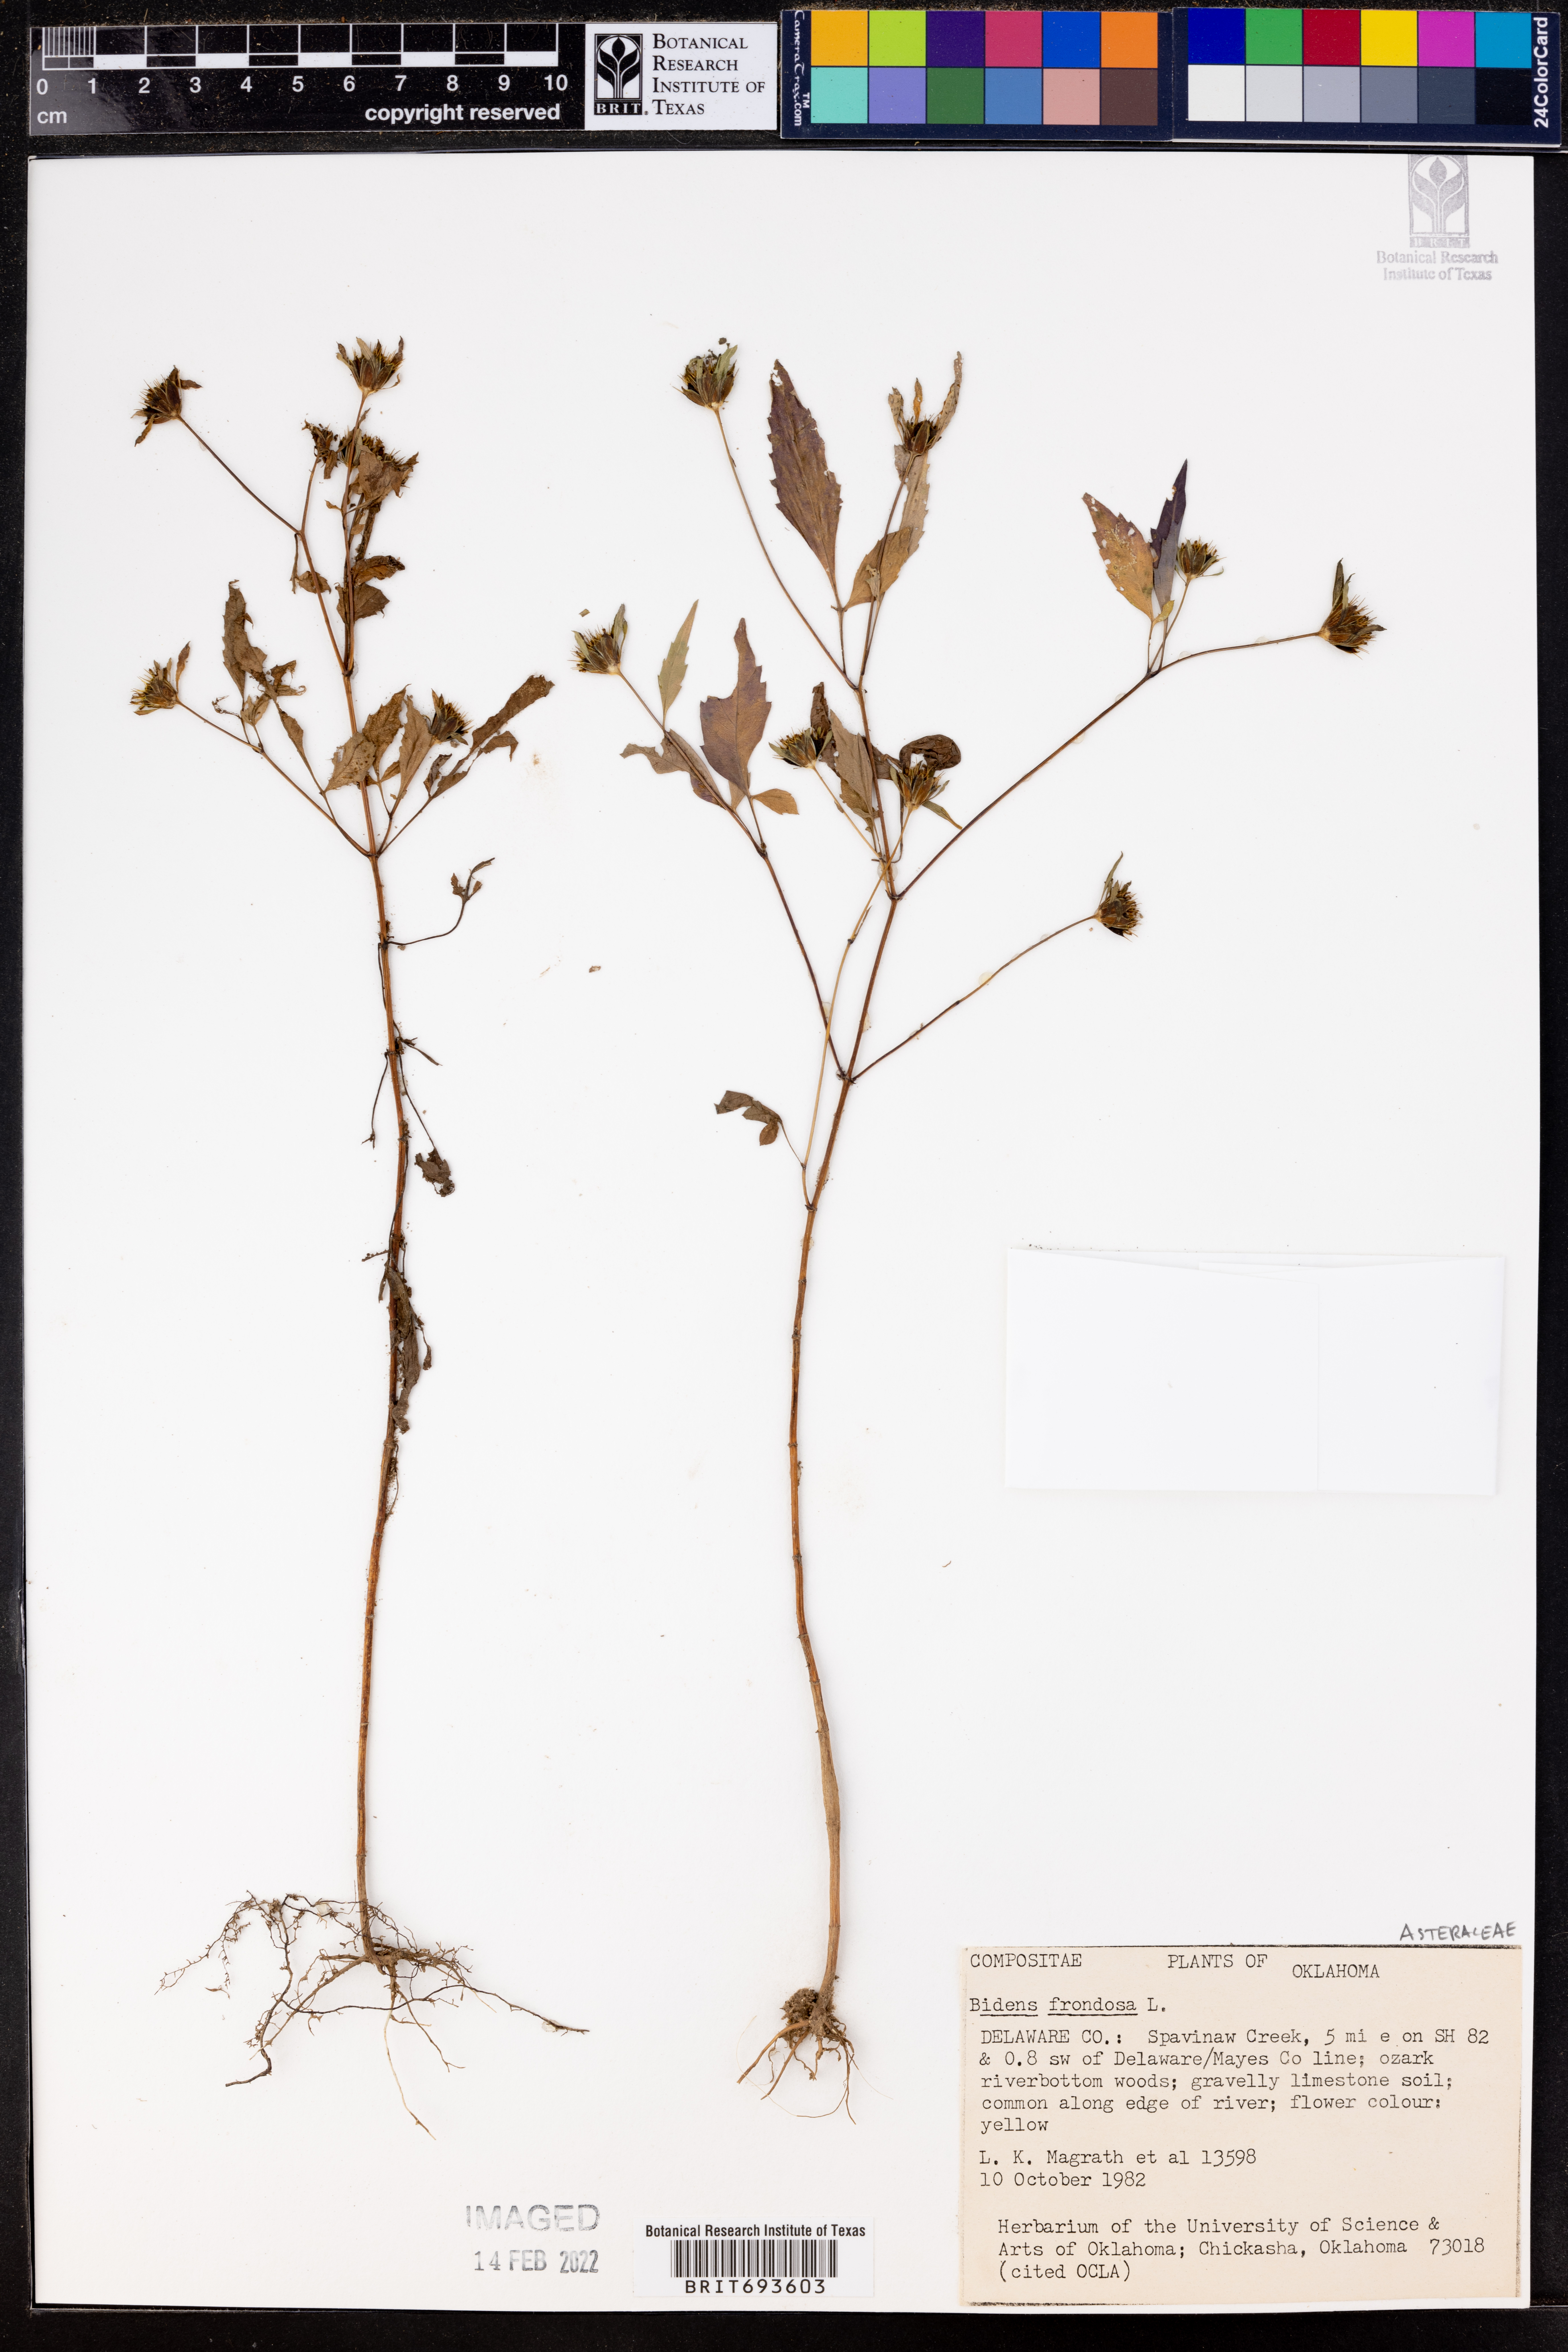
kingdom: Plantae
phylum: Tracheophyta
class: Magnoliopsida
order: Asterales
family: Asteraceae
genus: Bidens
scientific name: Bidens frondosa
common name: Beggarticks
